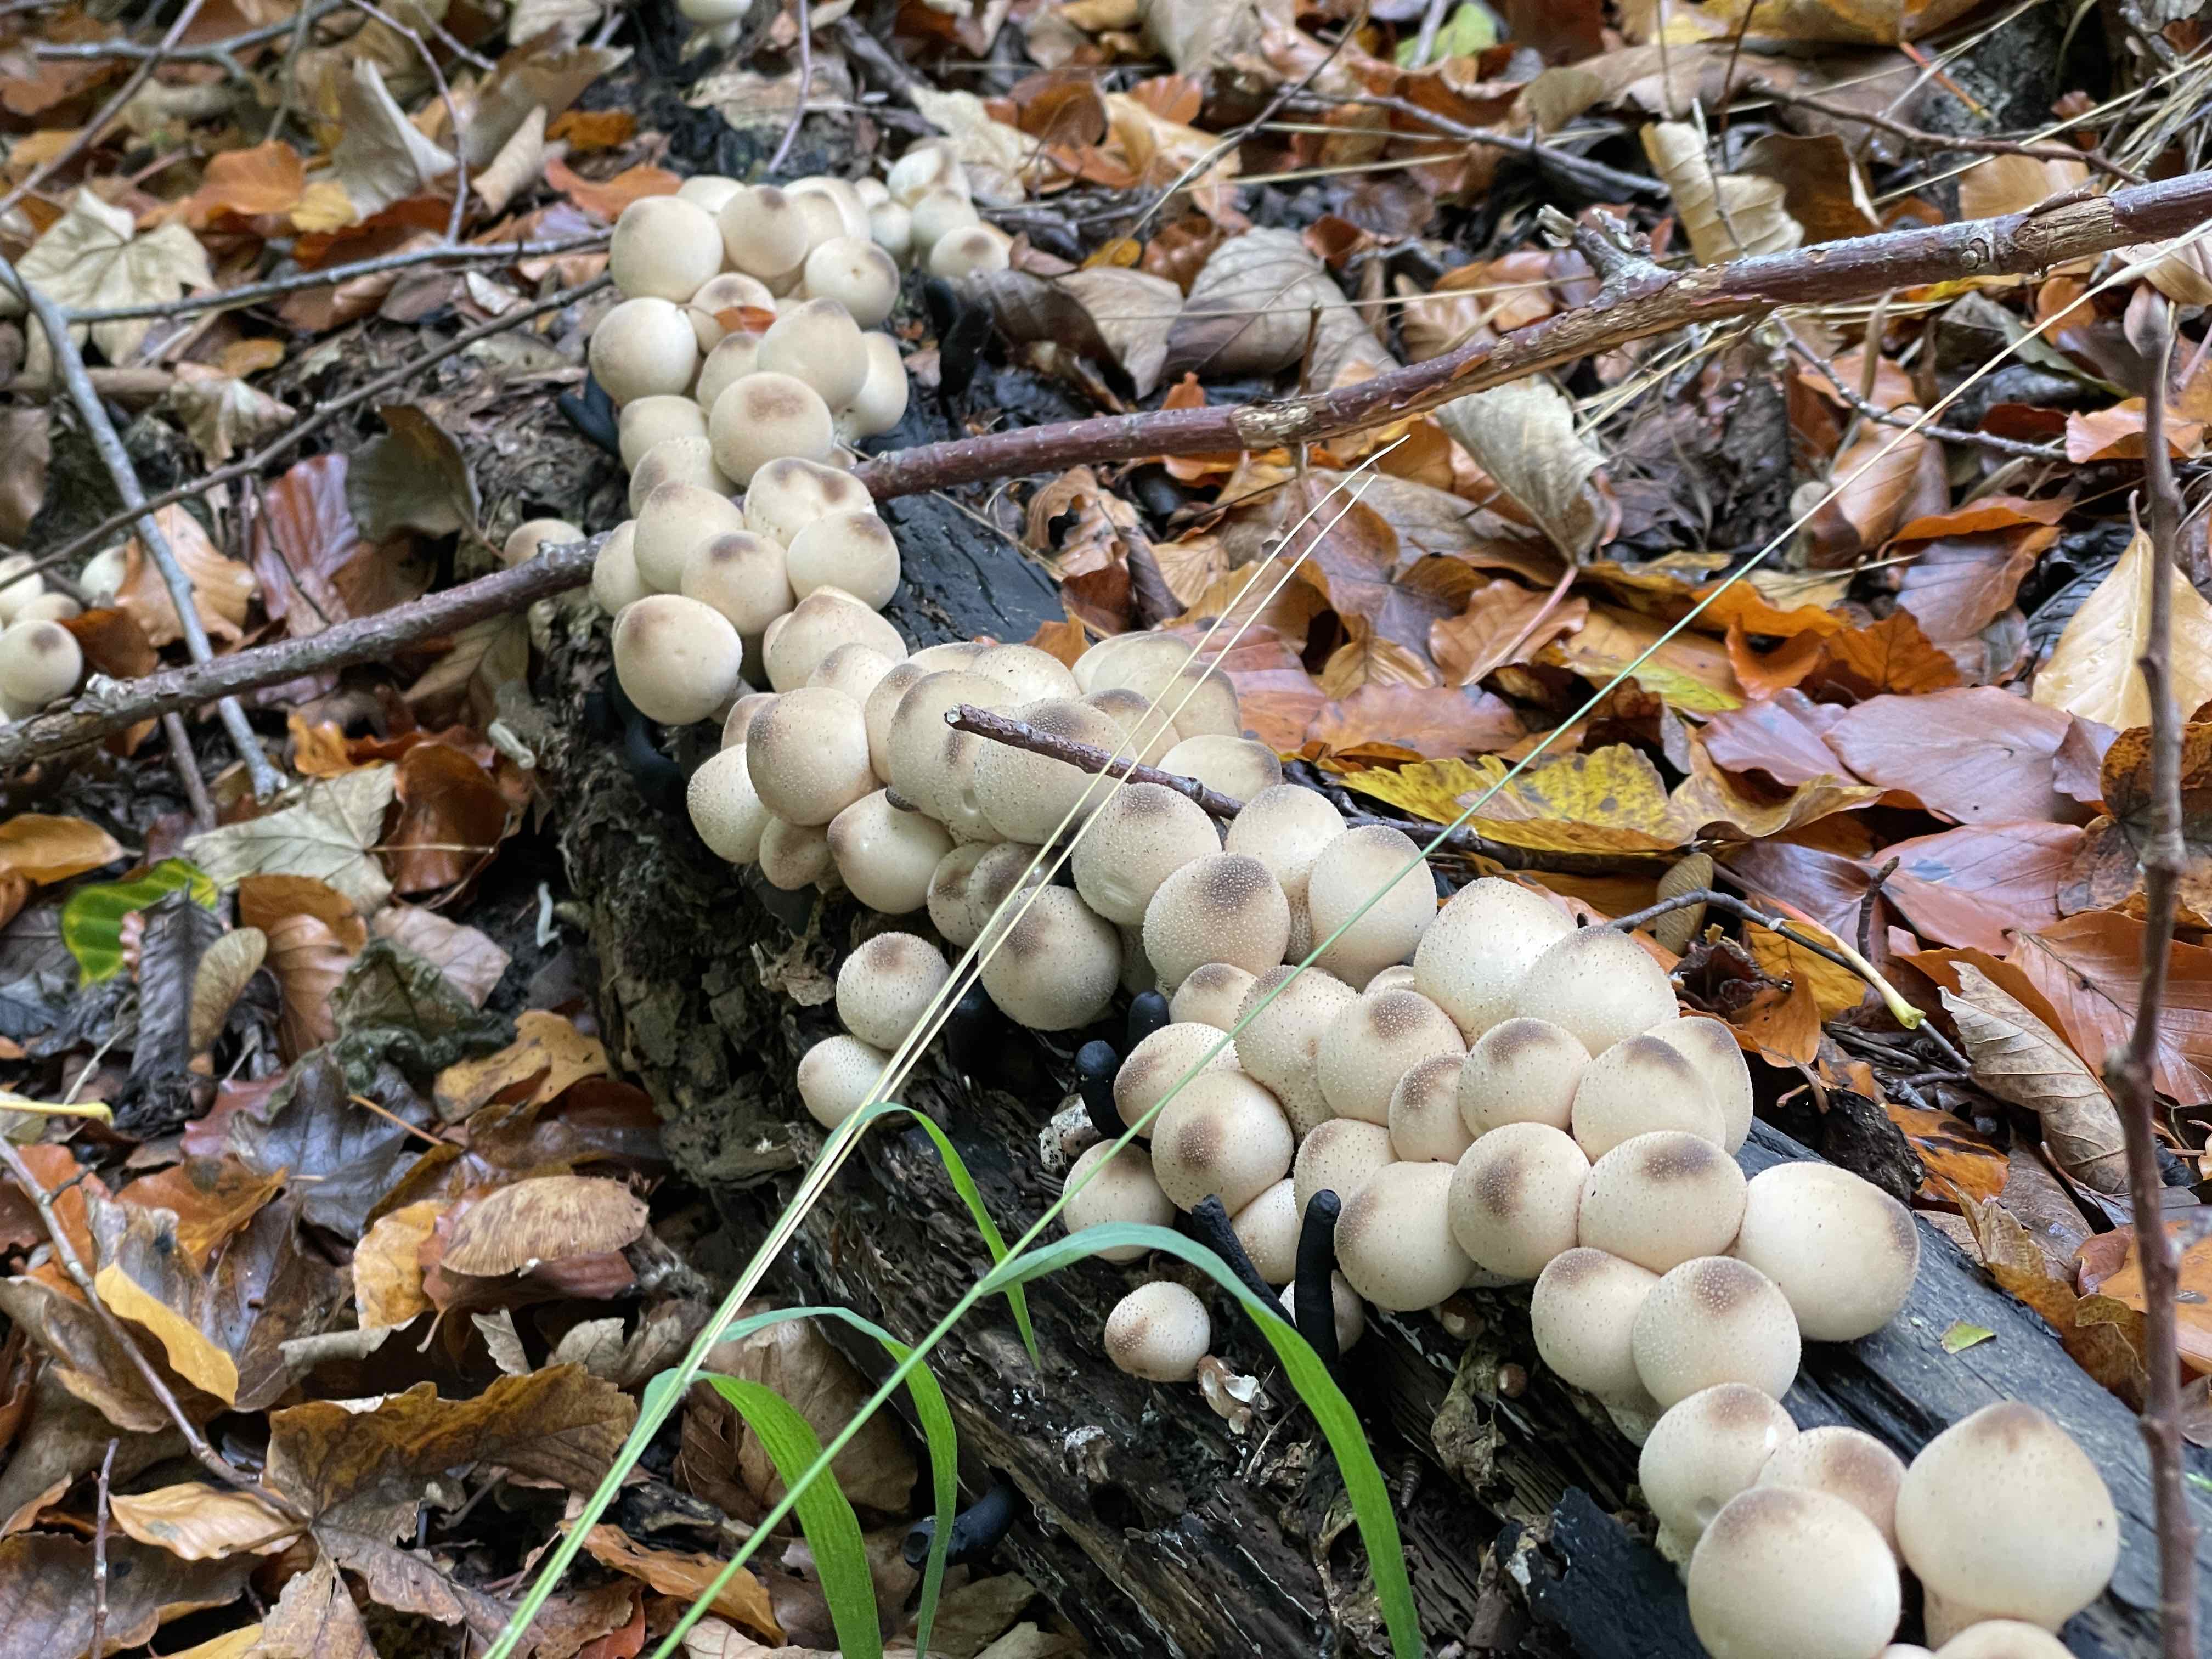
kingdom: Fungi
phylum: Basidiomycota
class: Agaricomycetes
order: Agaricales
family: Lycoperdaceae
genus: Apioperdon
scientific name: Apioperdon pyriforme
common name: pære-støvbold
